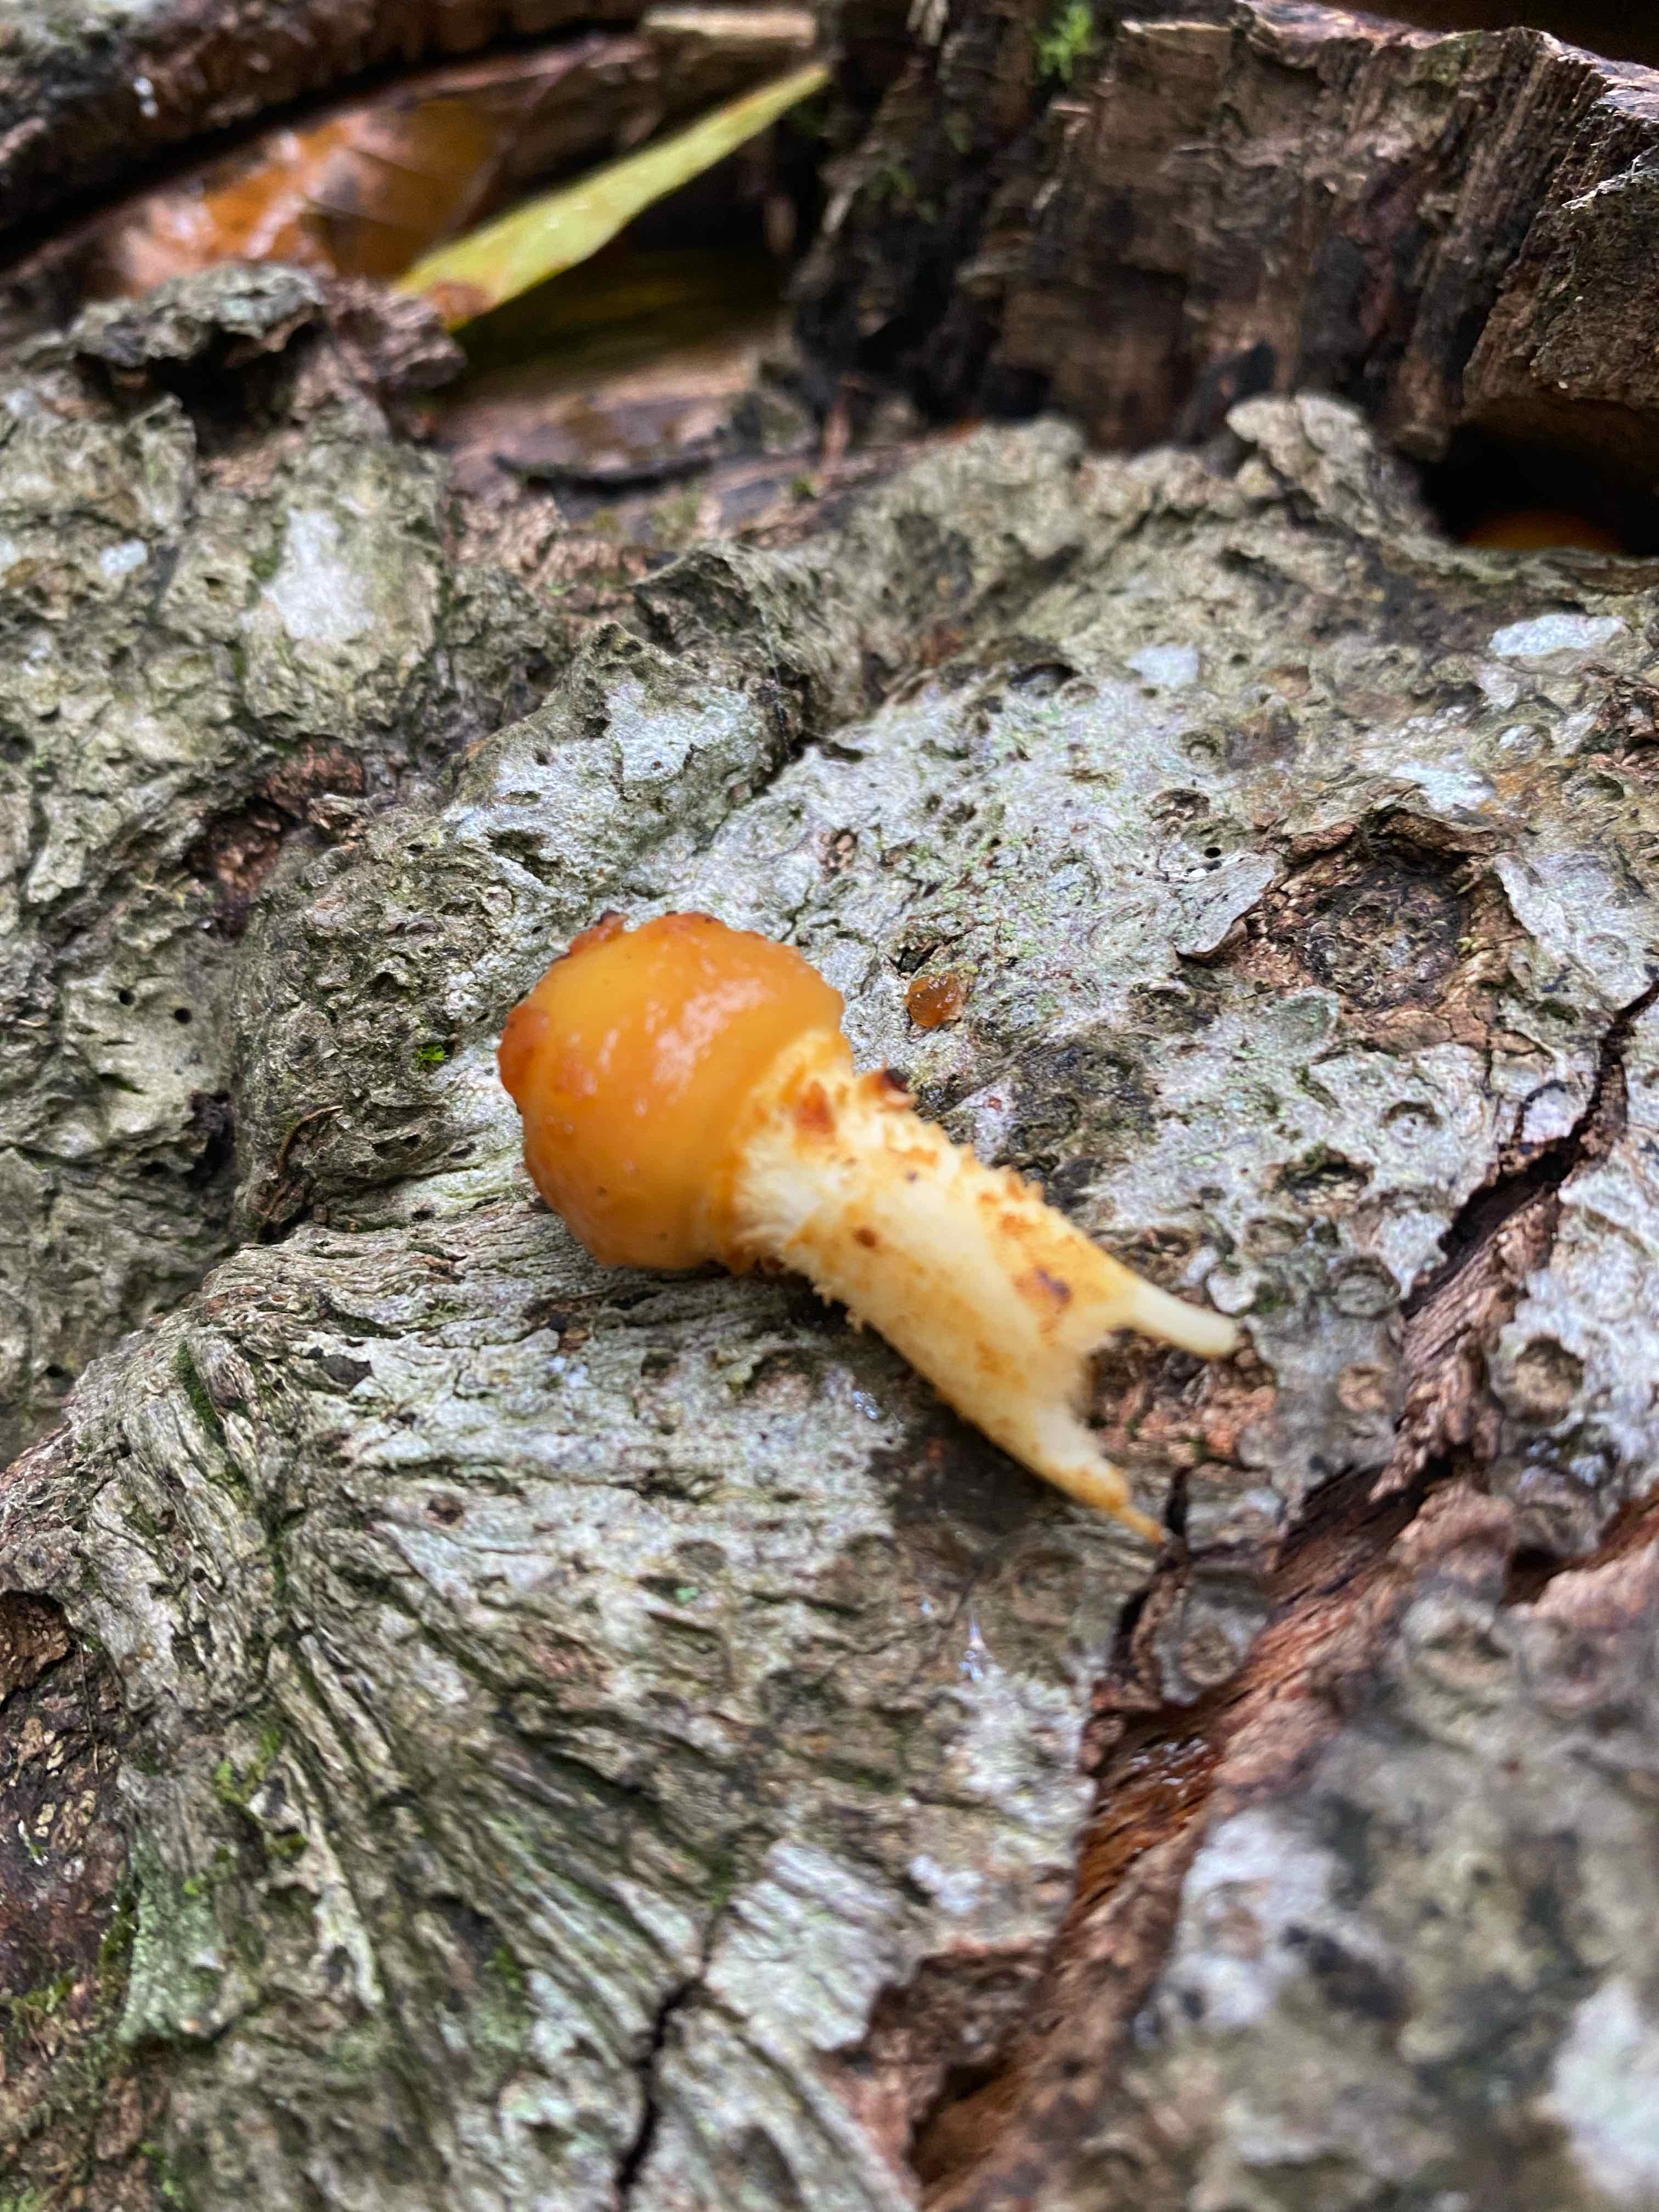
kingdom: Fungi
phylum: Basidiomycota
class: Agaricomycetes
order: Agaricales
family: Strophariaceae
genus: Pholiota
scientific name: Pholiota adiposa
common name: højtsiddende skælhat
